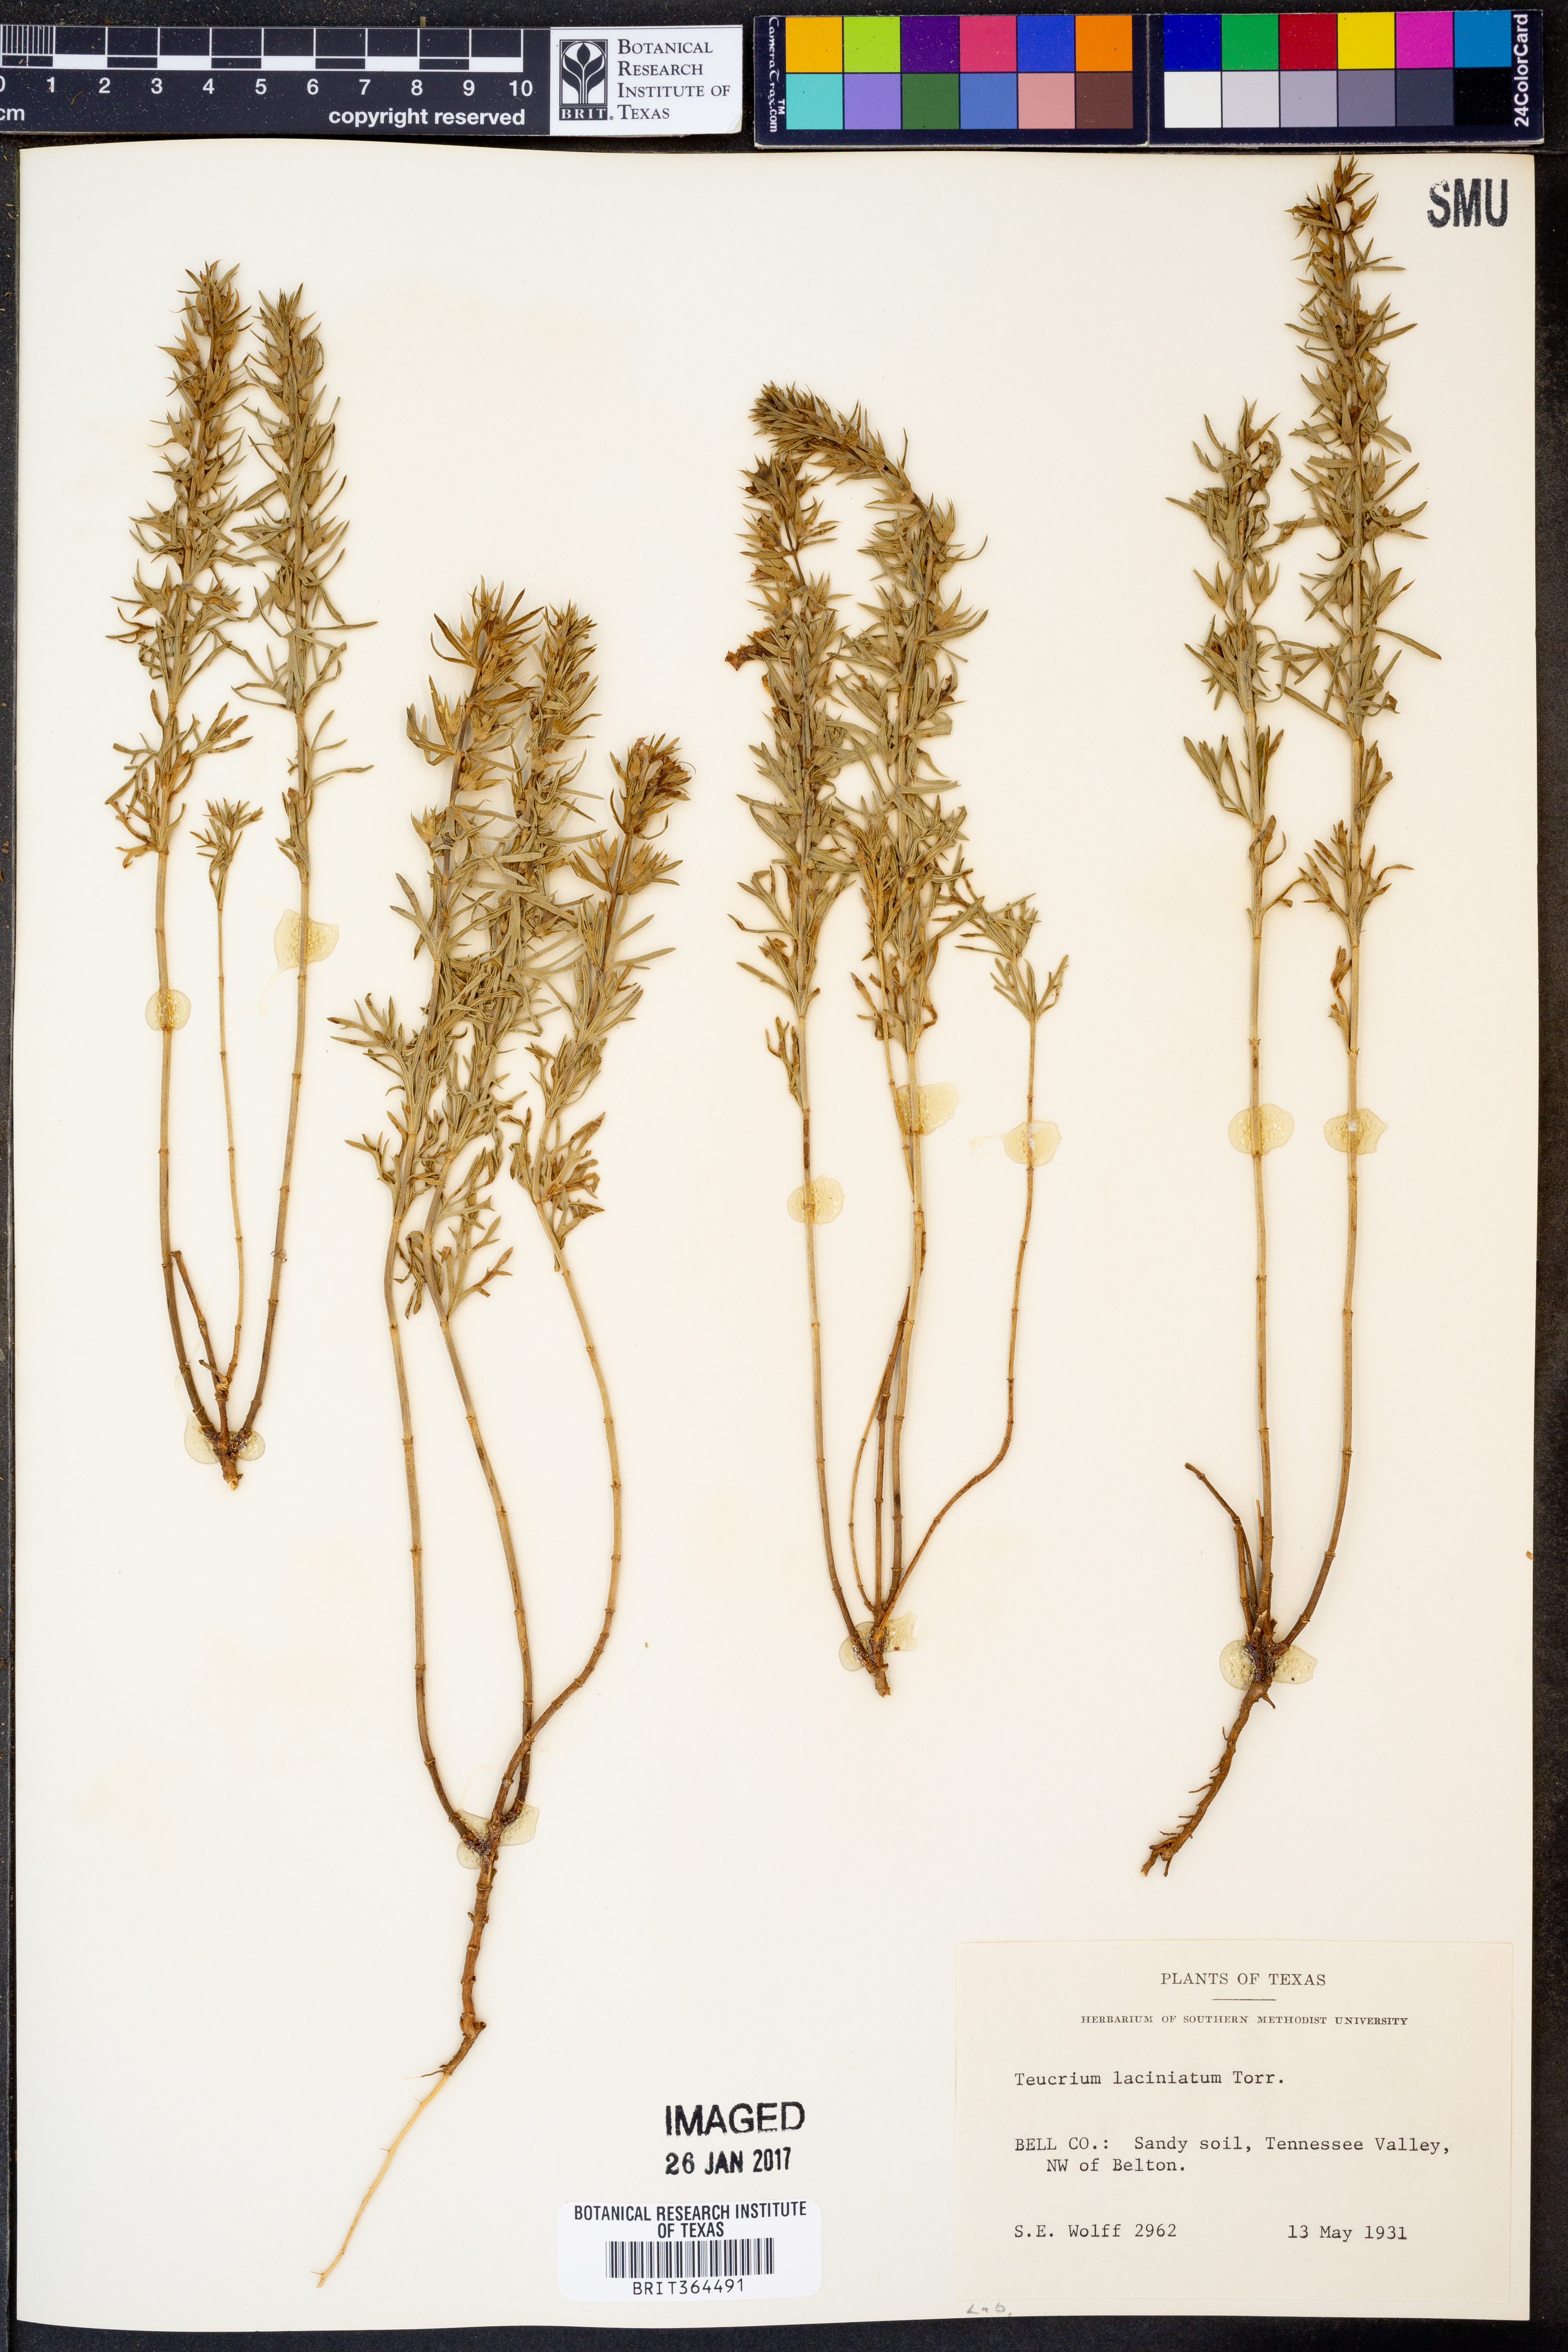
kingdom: Plantae
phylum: Tracheophyta
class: Magnoliopsida
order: Lamiales
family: Lamiaceae
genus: Teucrium
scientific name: Teucrium laciniatum
